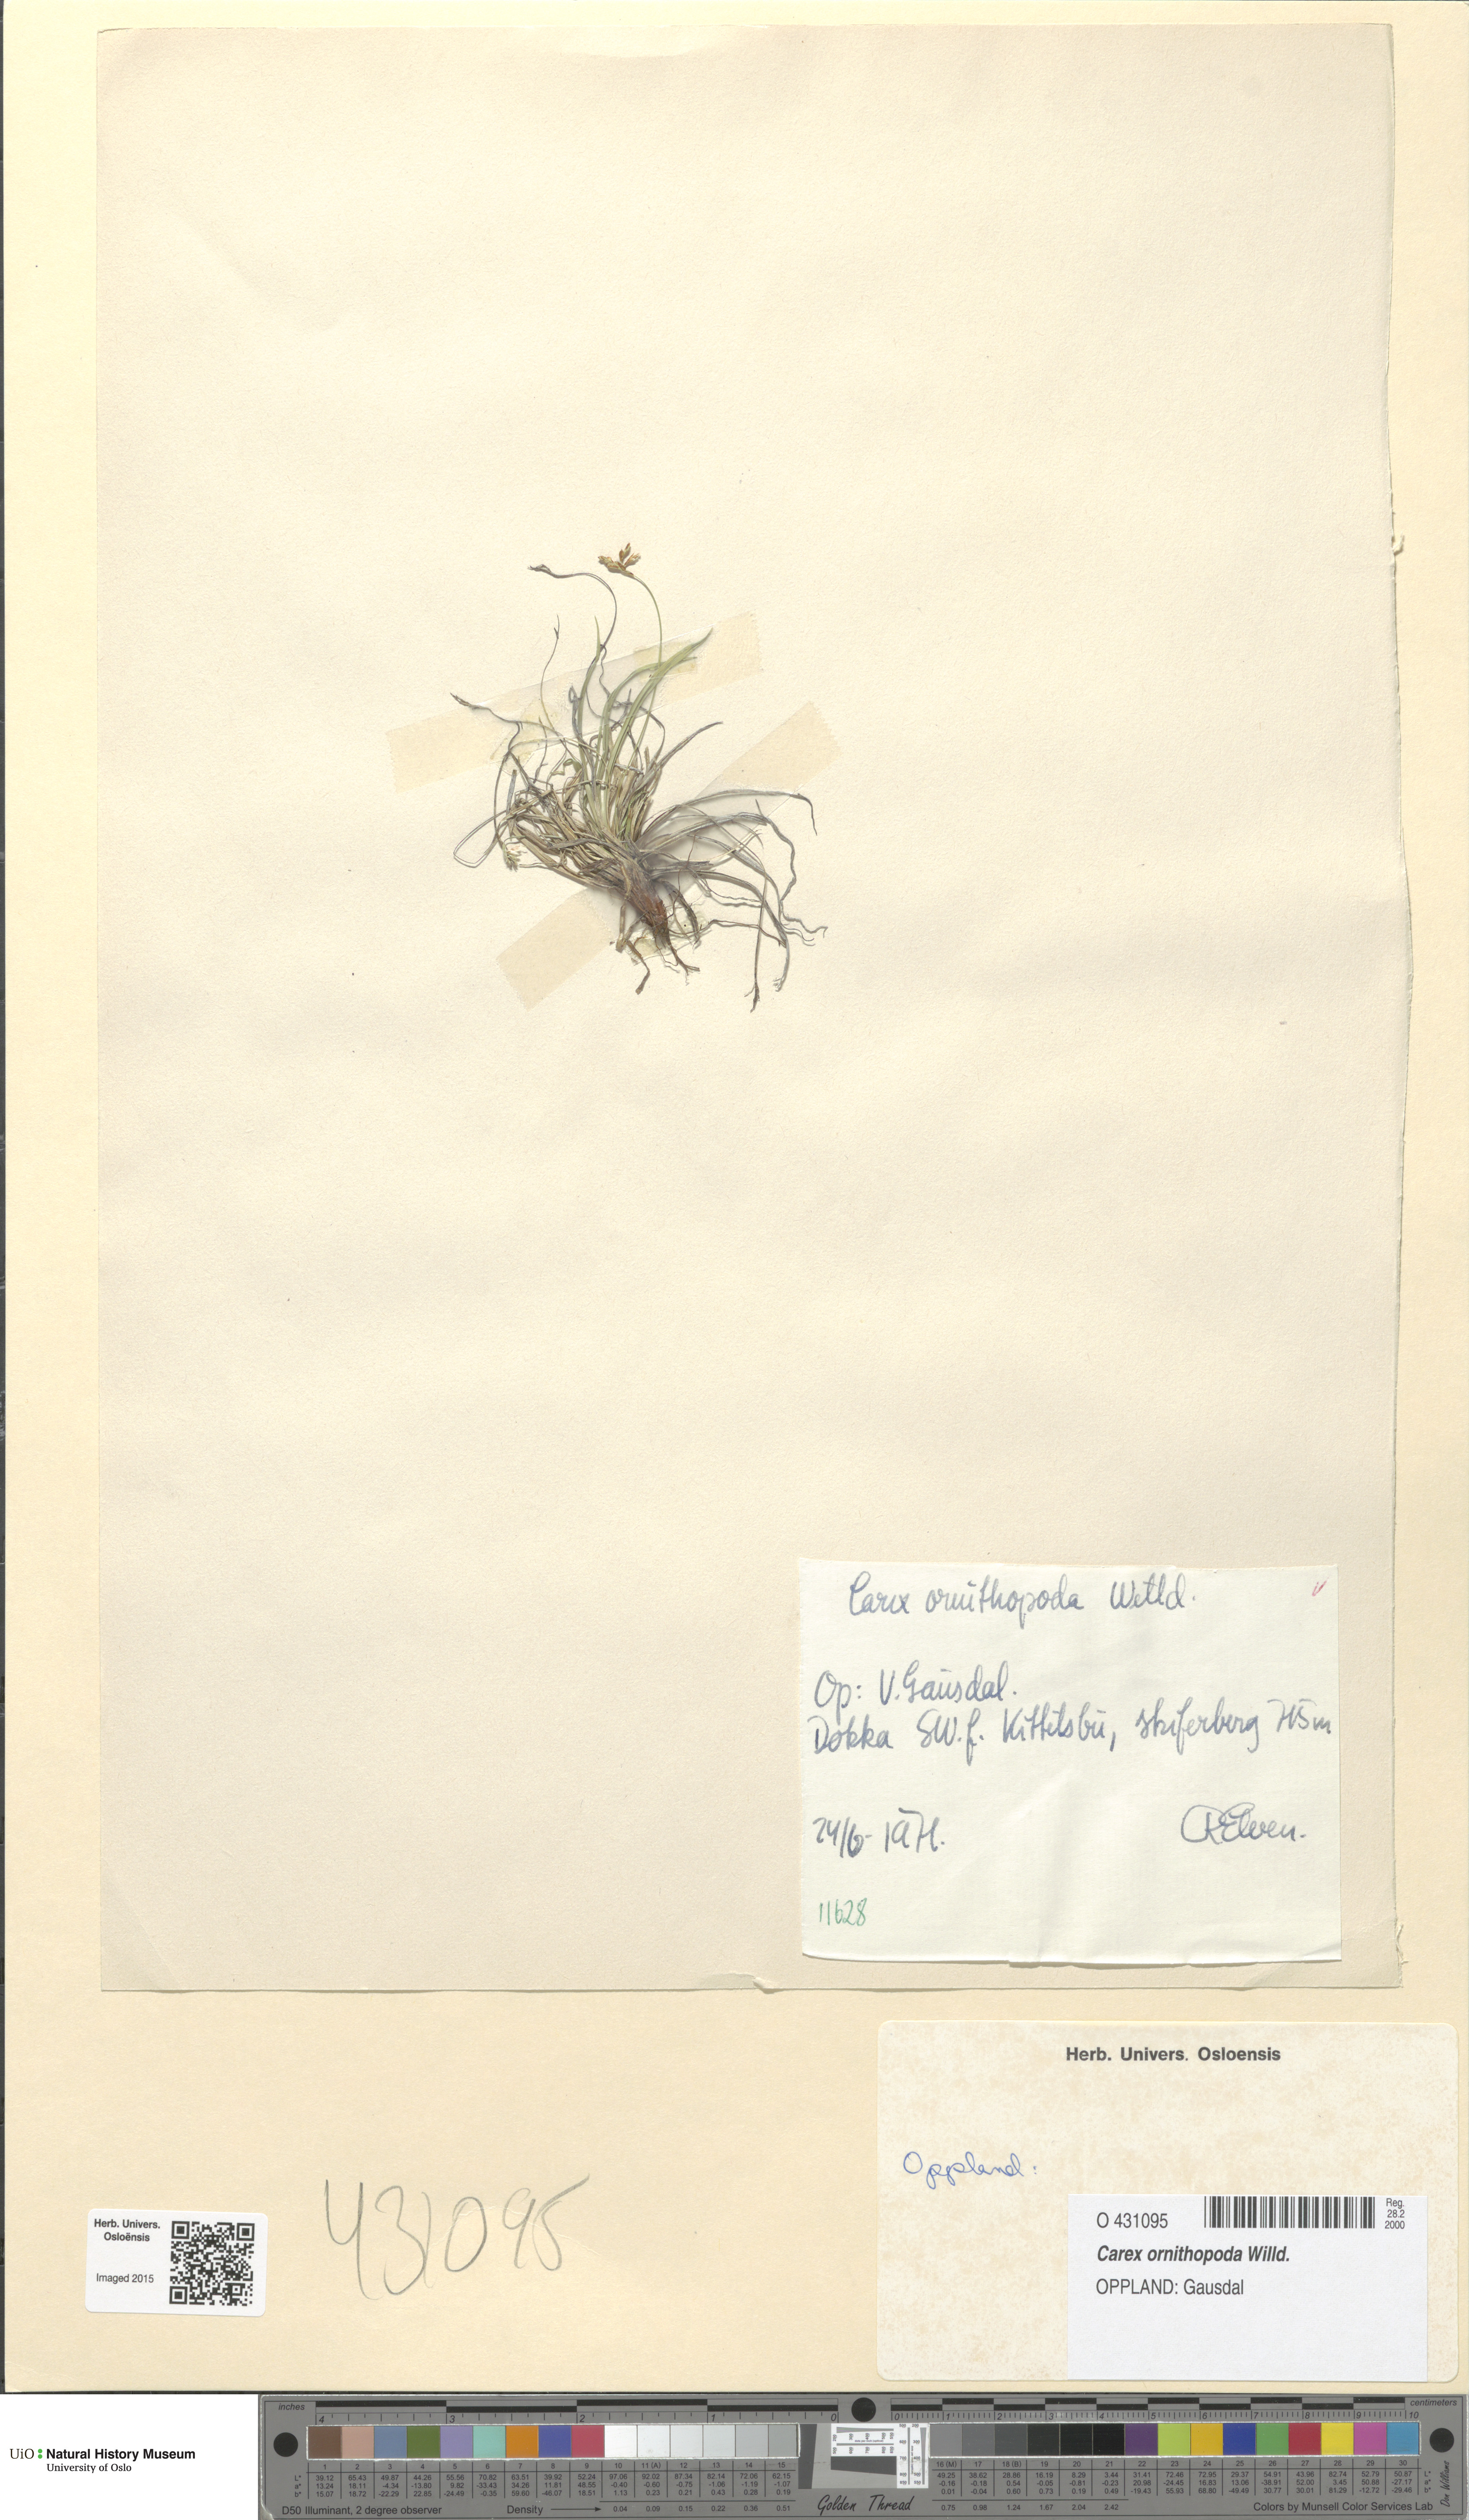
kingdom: Plantae
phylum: Tracheophyta
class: Liliopsida
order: Poales
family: Cyperaceae
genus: Carex
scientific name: Carex ornithopoda
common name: Bird's-foot sedge
